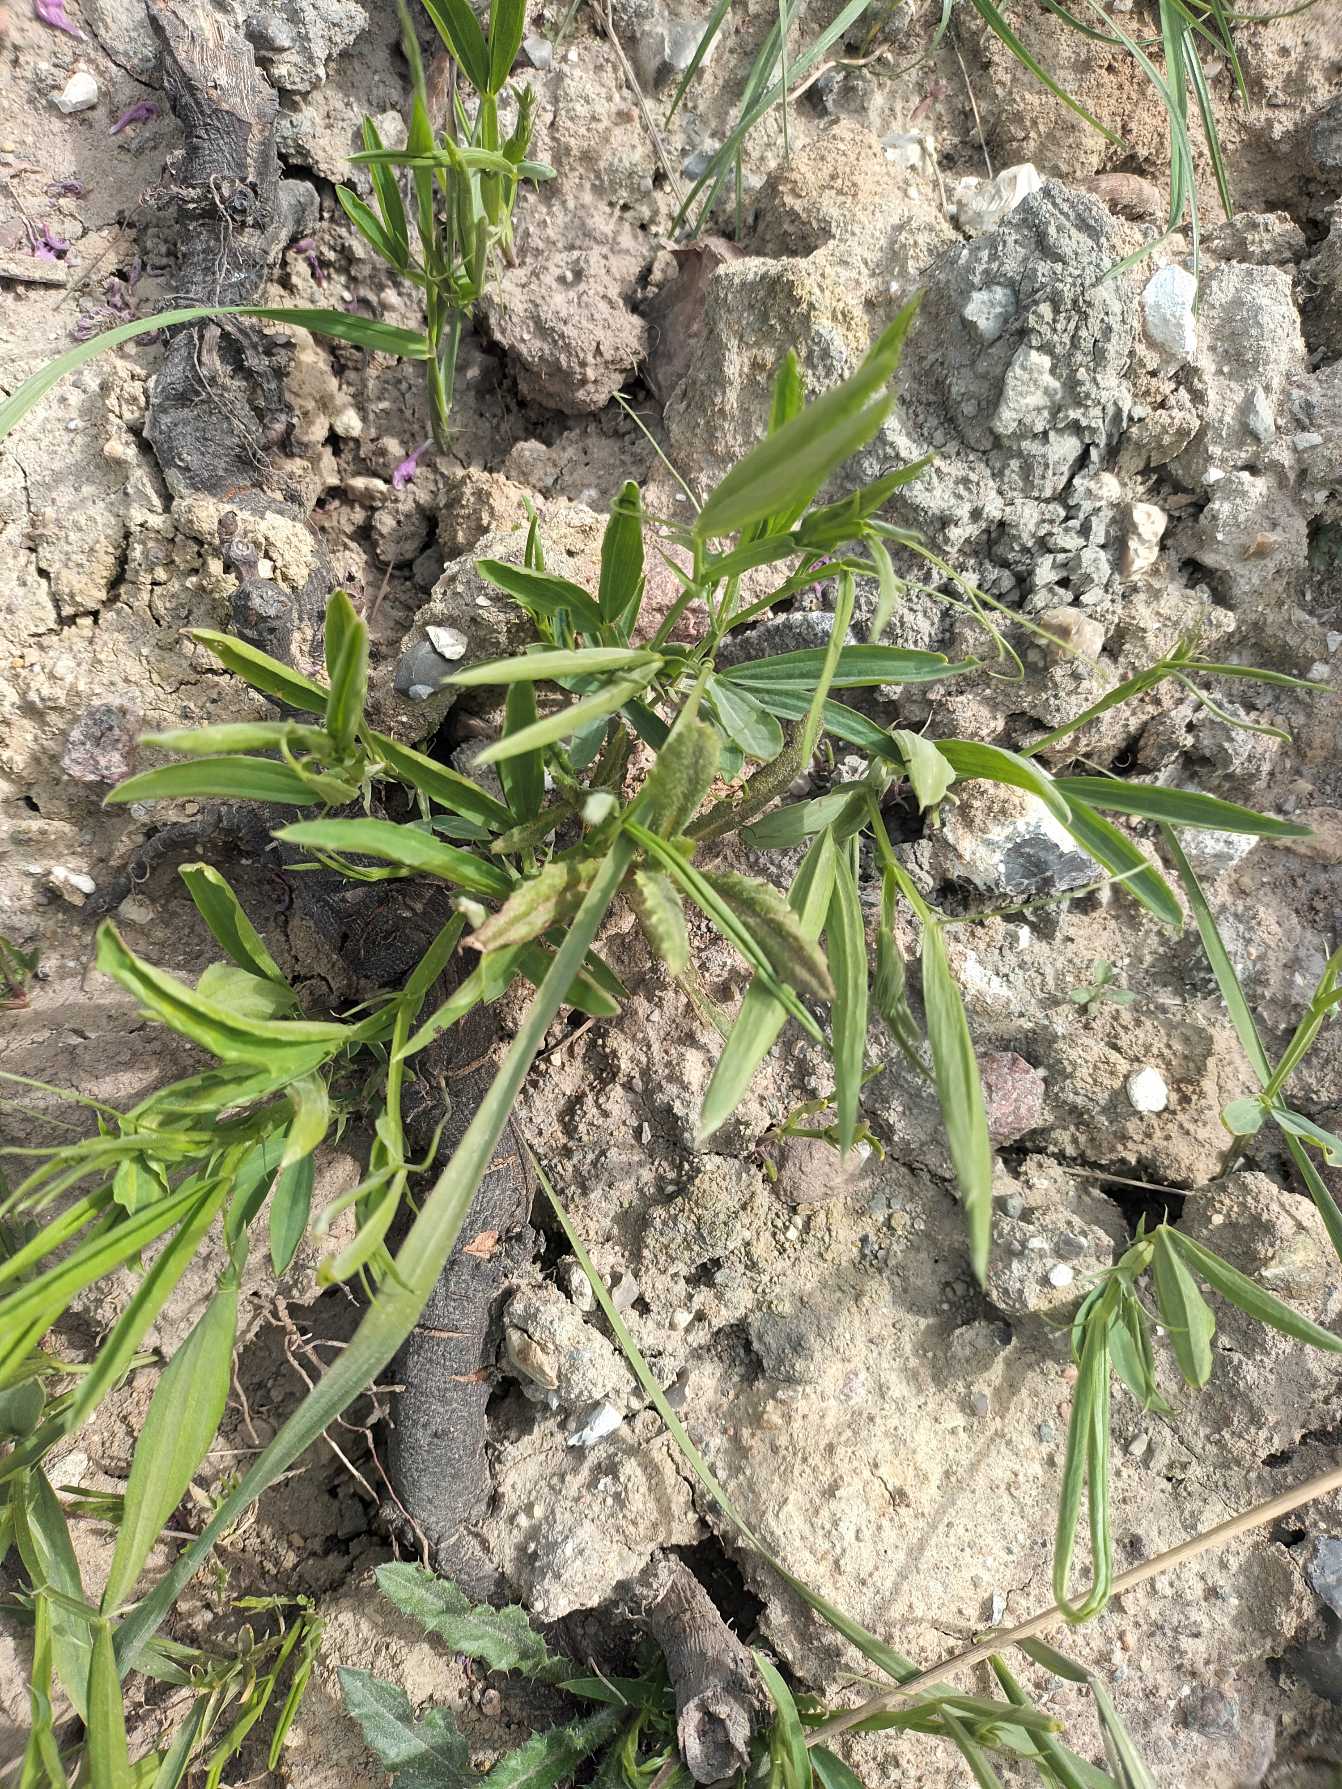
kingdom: Plantae
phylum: Tracheophyta
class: Magnoliopsida
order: Fabales
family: Fabaceae
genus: Lathyrus
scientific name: Lathyrus sylvestris
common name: Skov-fladbælg
